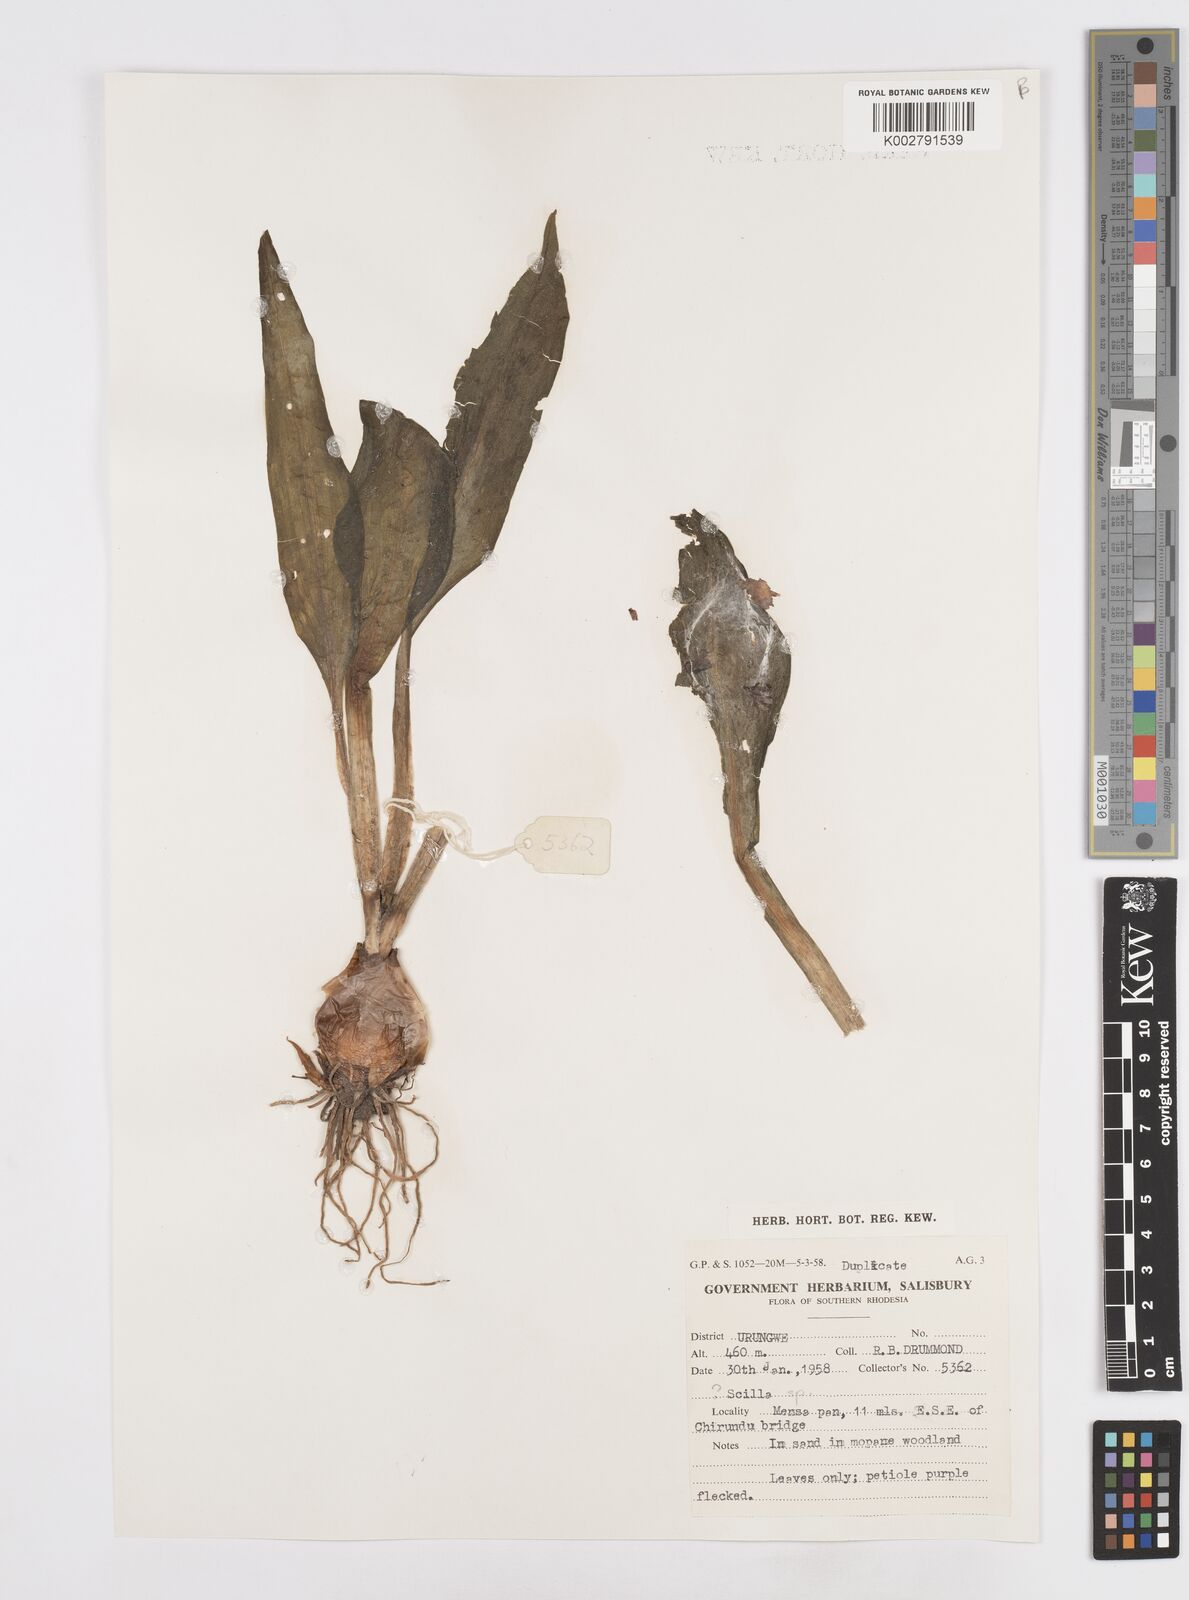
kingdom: Plantae
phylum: Tracheophyta
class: Liliopsida
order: Asparagales
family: Asparagaceae
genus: Scilla
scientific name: Scilla
